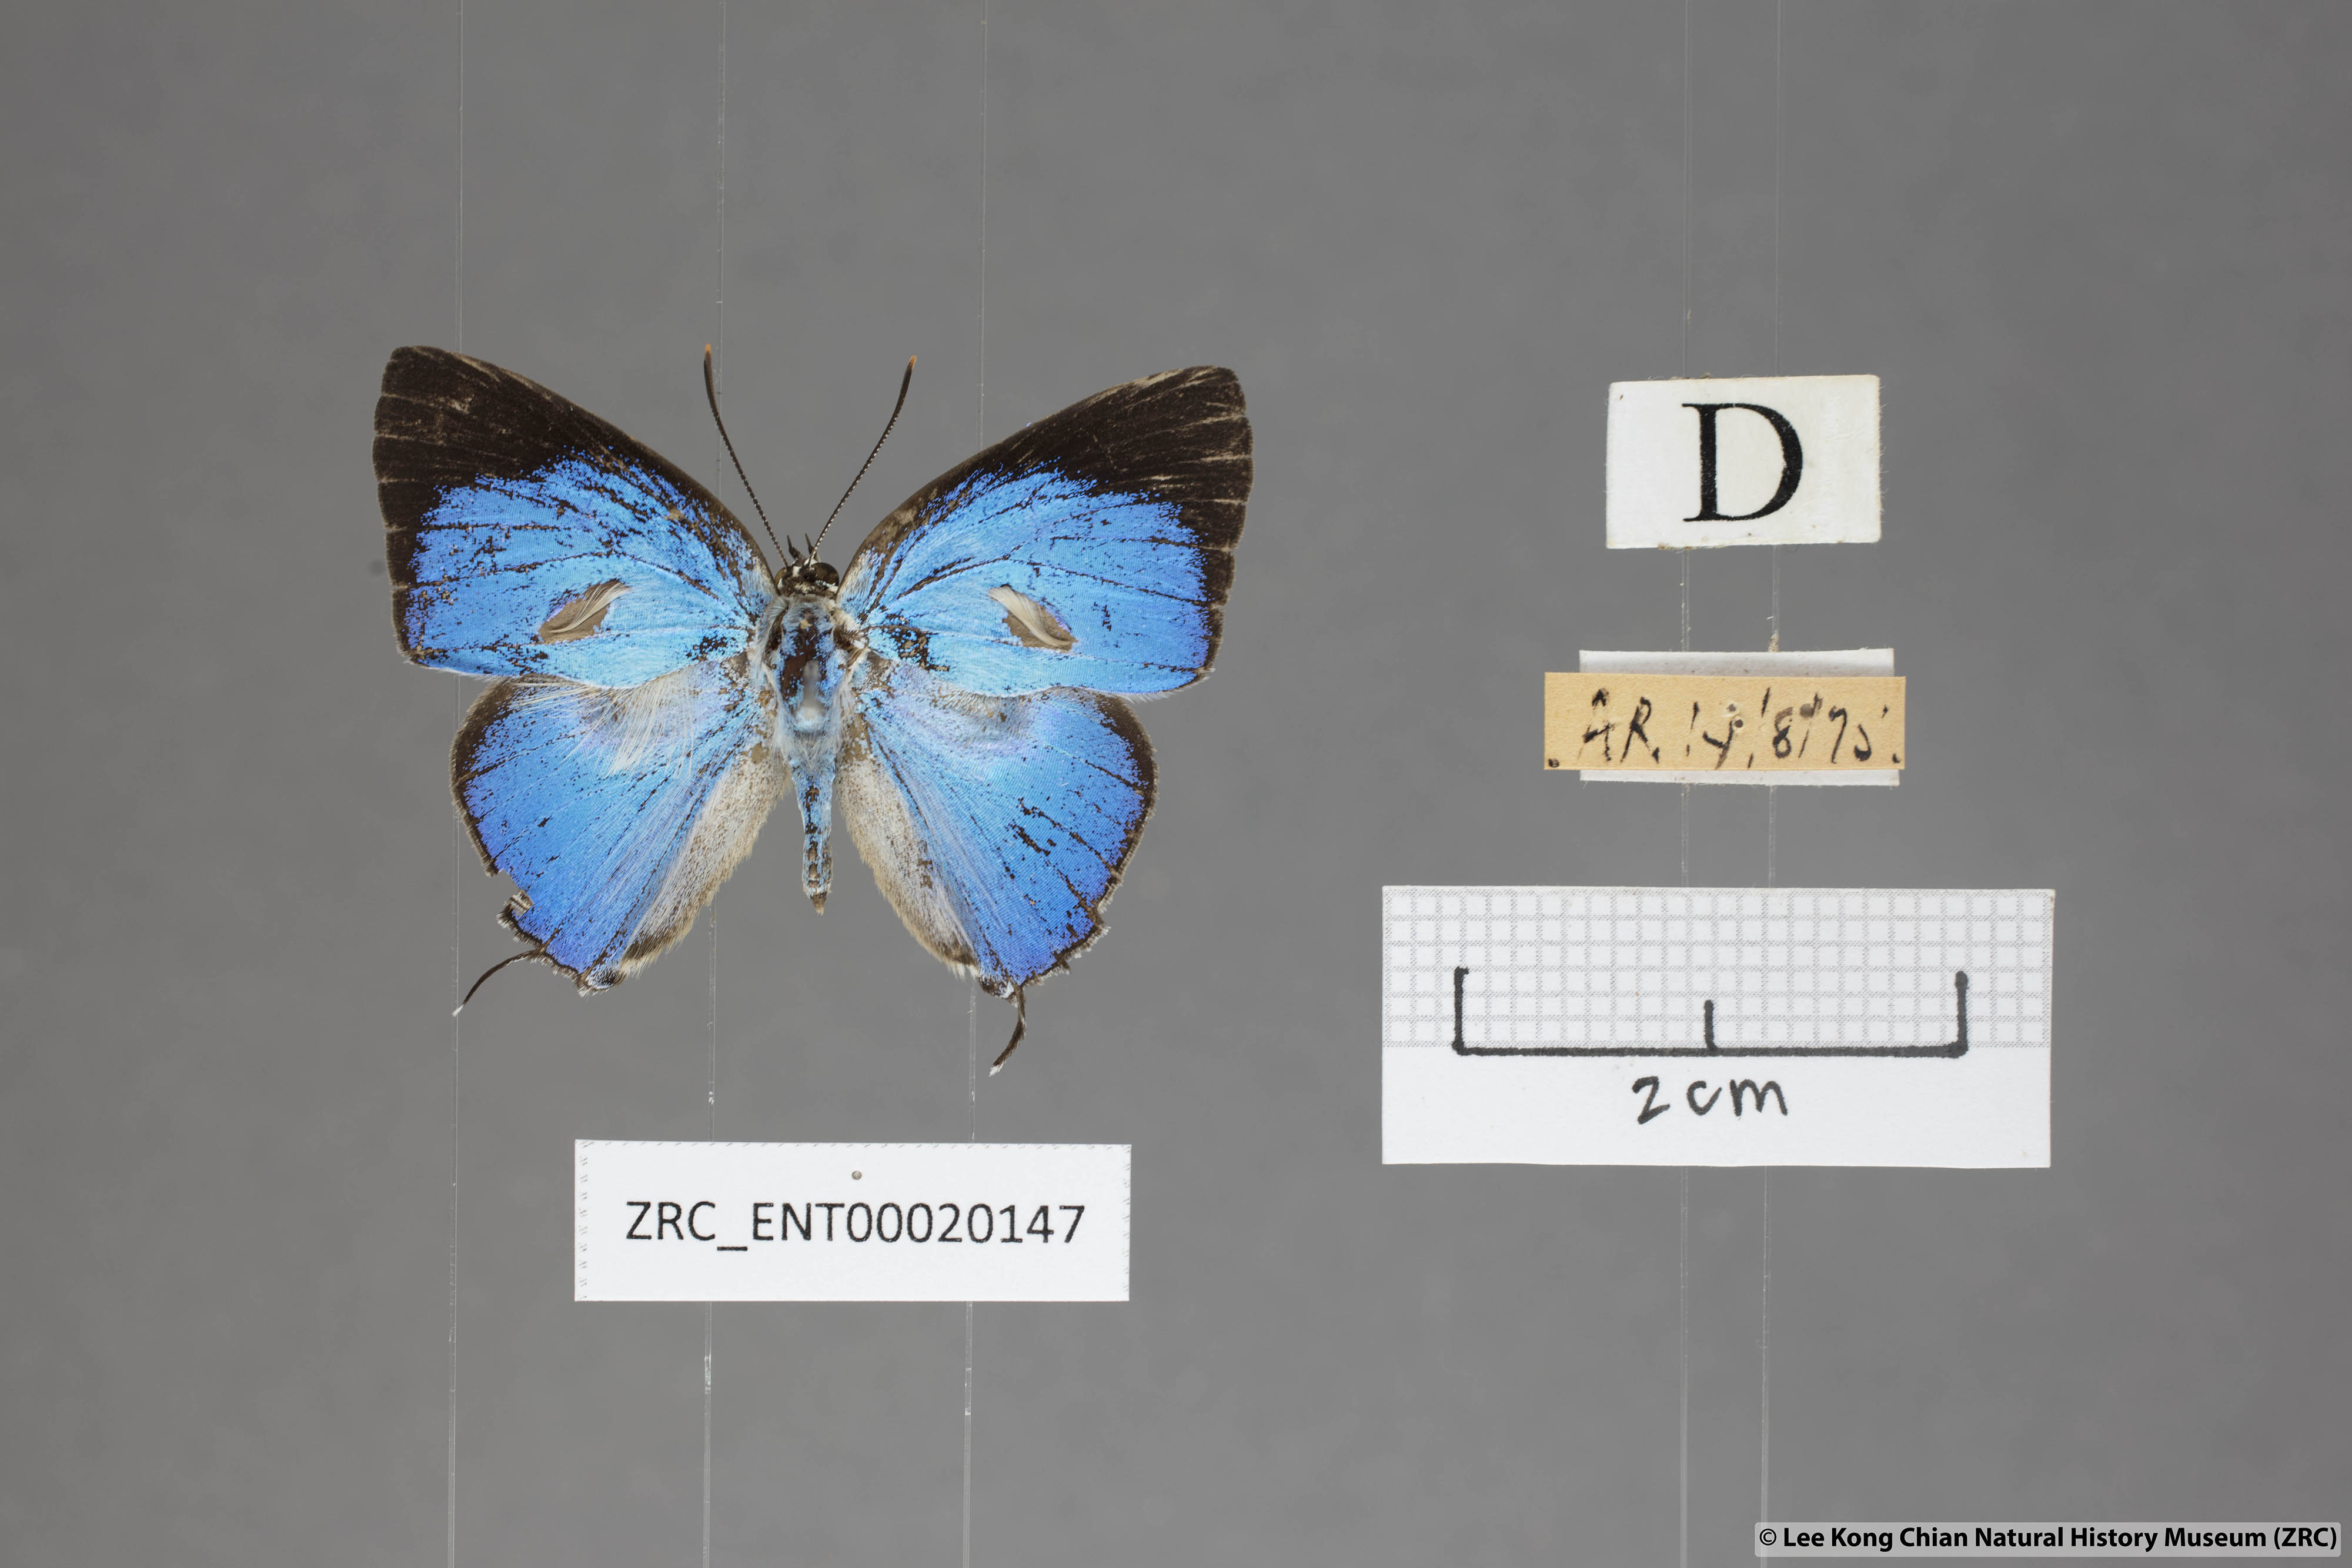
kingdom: Animalia
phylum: Arthropoda
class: Insecta
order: Lepidoptera
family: Lycaenidae
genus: Dacalana
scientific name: Dacalana sinhara
